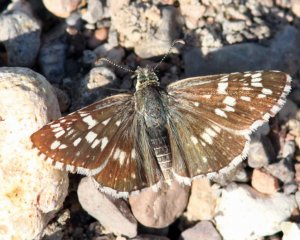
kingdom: Animalia
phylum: Arthropoda
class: Insecta
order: Lepidoptera
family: Hesperiidae
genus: Pyrgus
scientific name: Pyrgus scriptura
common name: Small Checkered-Skipper
